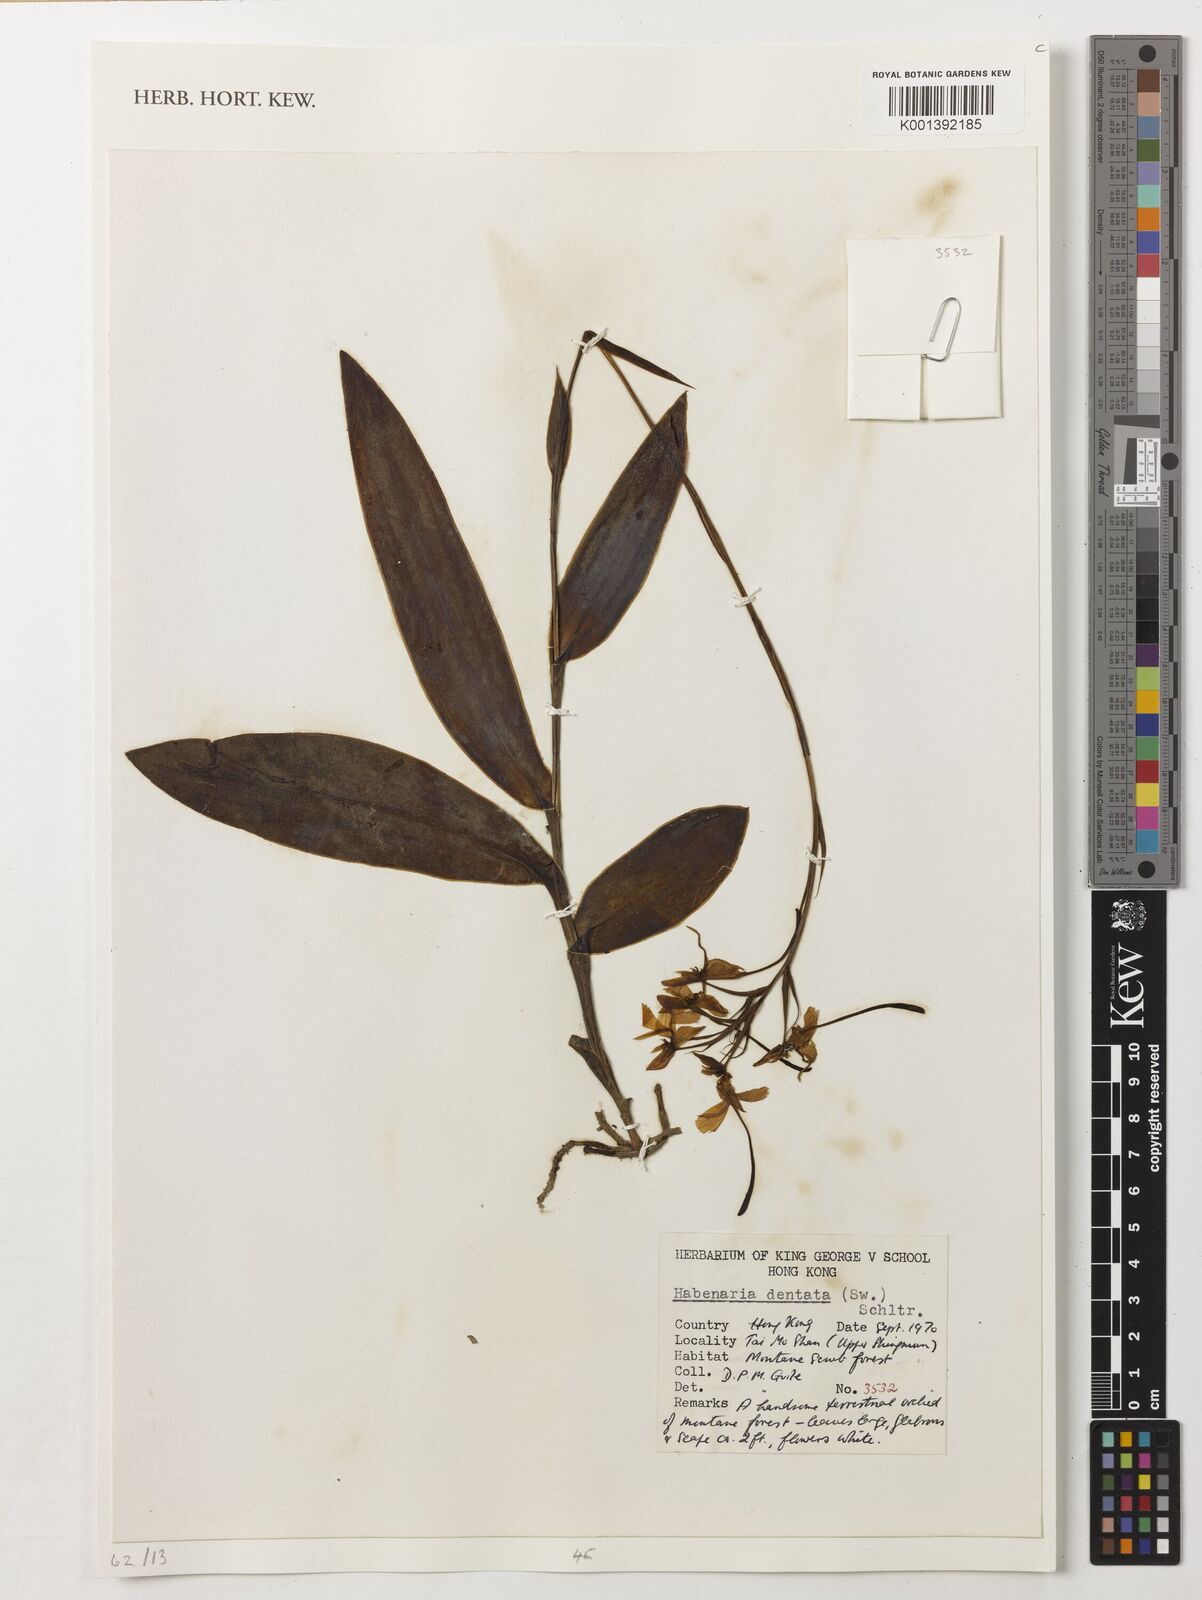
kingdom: Plantae
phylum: Tracheophyta
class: Liliopsida
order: Asparagales
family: Orchidaceae
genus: Habenaria
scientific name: Habenaria dentata
